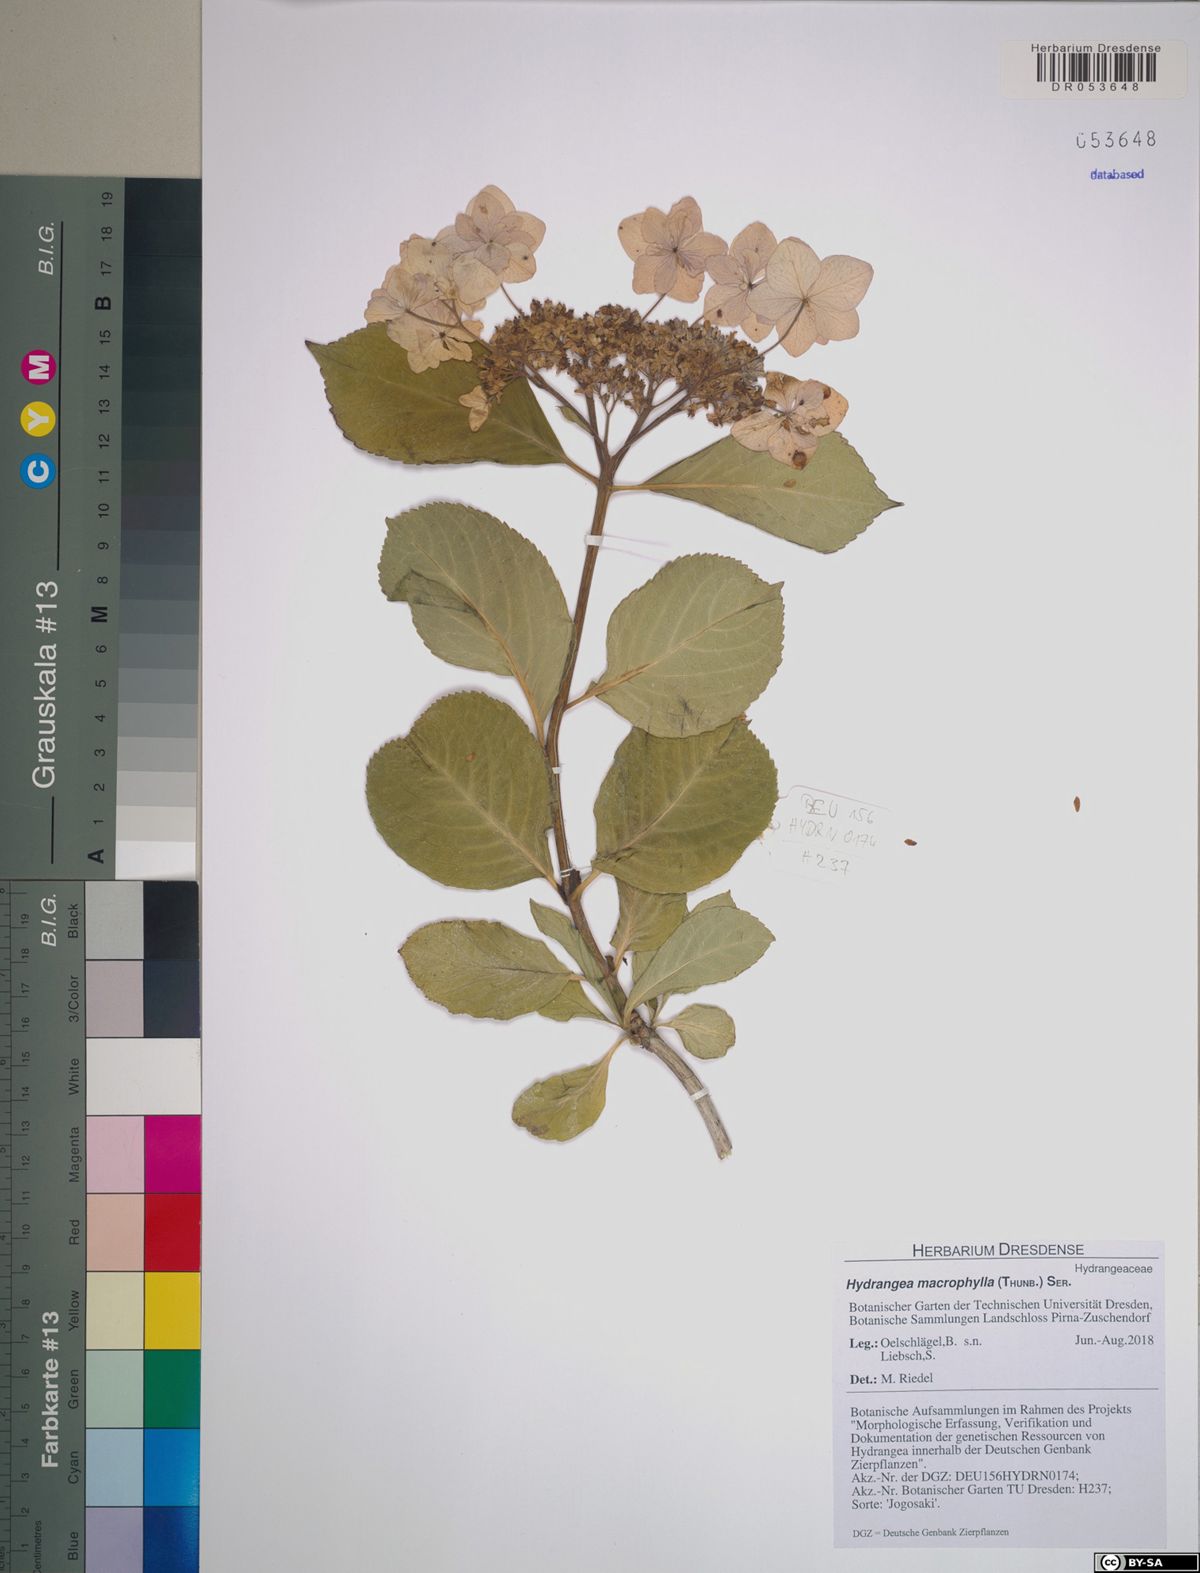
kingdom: Plantae
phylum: Tracheophyta
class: Magnoliopsida
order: Cornales
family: Hydrangeaceae
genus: Hydrangea
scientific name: Hydrangea macrophylla
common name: Hydrangea
